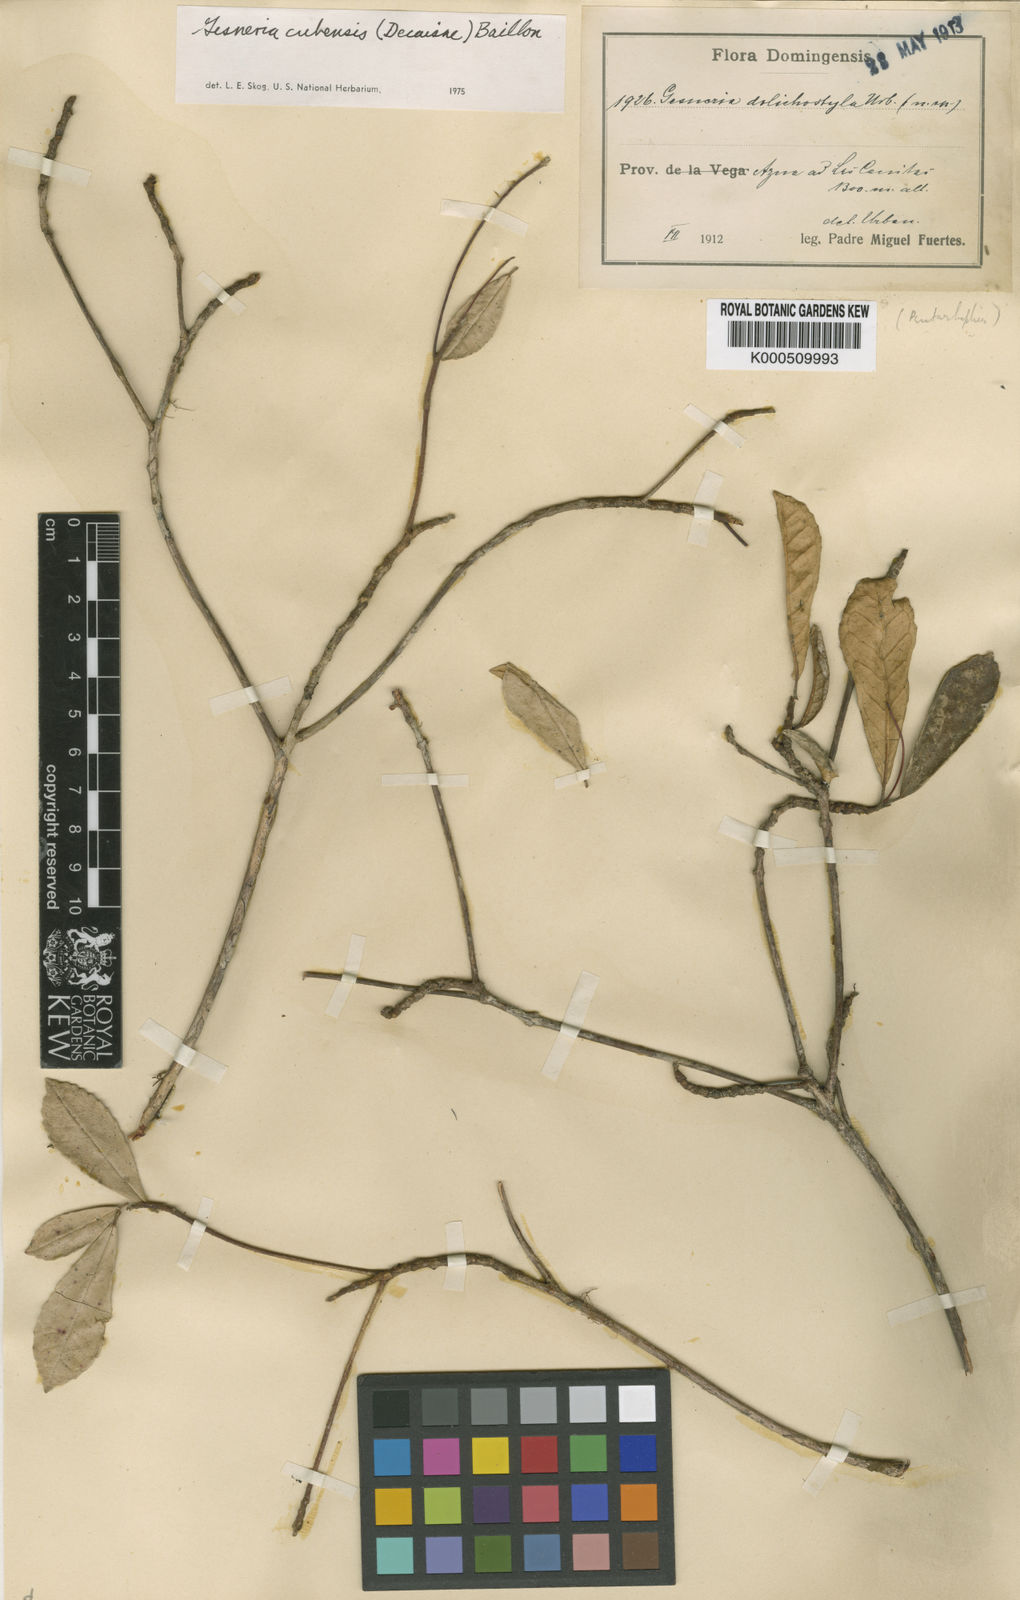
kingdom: Plantae
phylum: Tracheophyta
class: Magnoliopsida
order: Lamiales
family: Gesneriaceae
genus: Gesneria
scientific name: Gesneria cubensis
